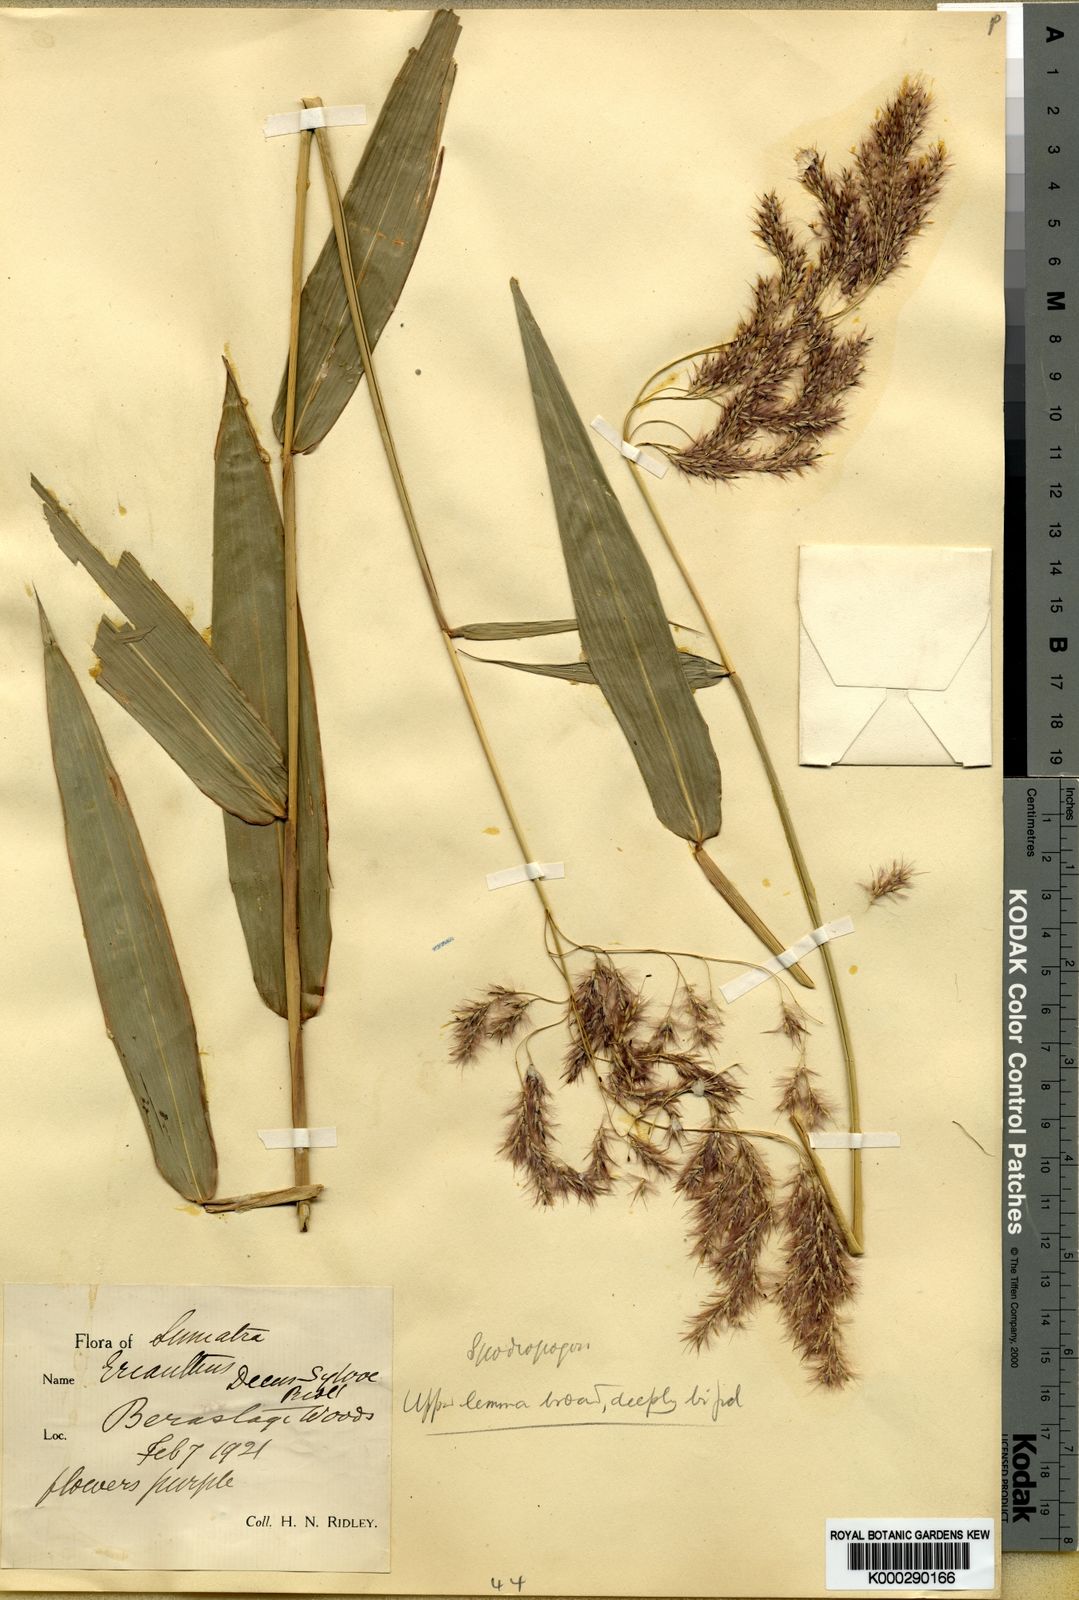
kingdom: Plantae
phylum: Tracheophyta
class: Liliopsida
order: Poales
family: Poaceae
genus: Saccharum
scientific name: Saccharum beccarii
